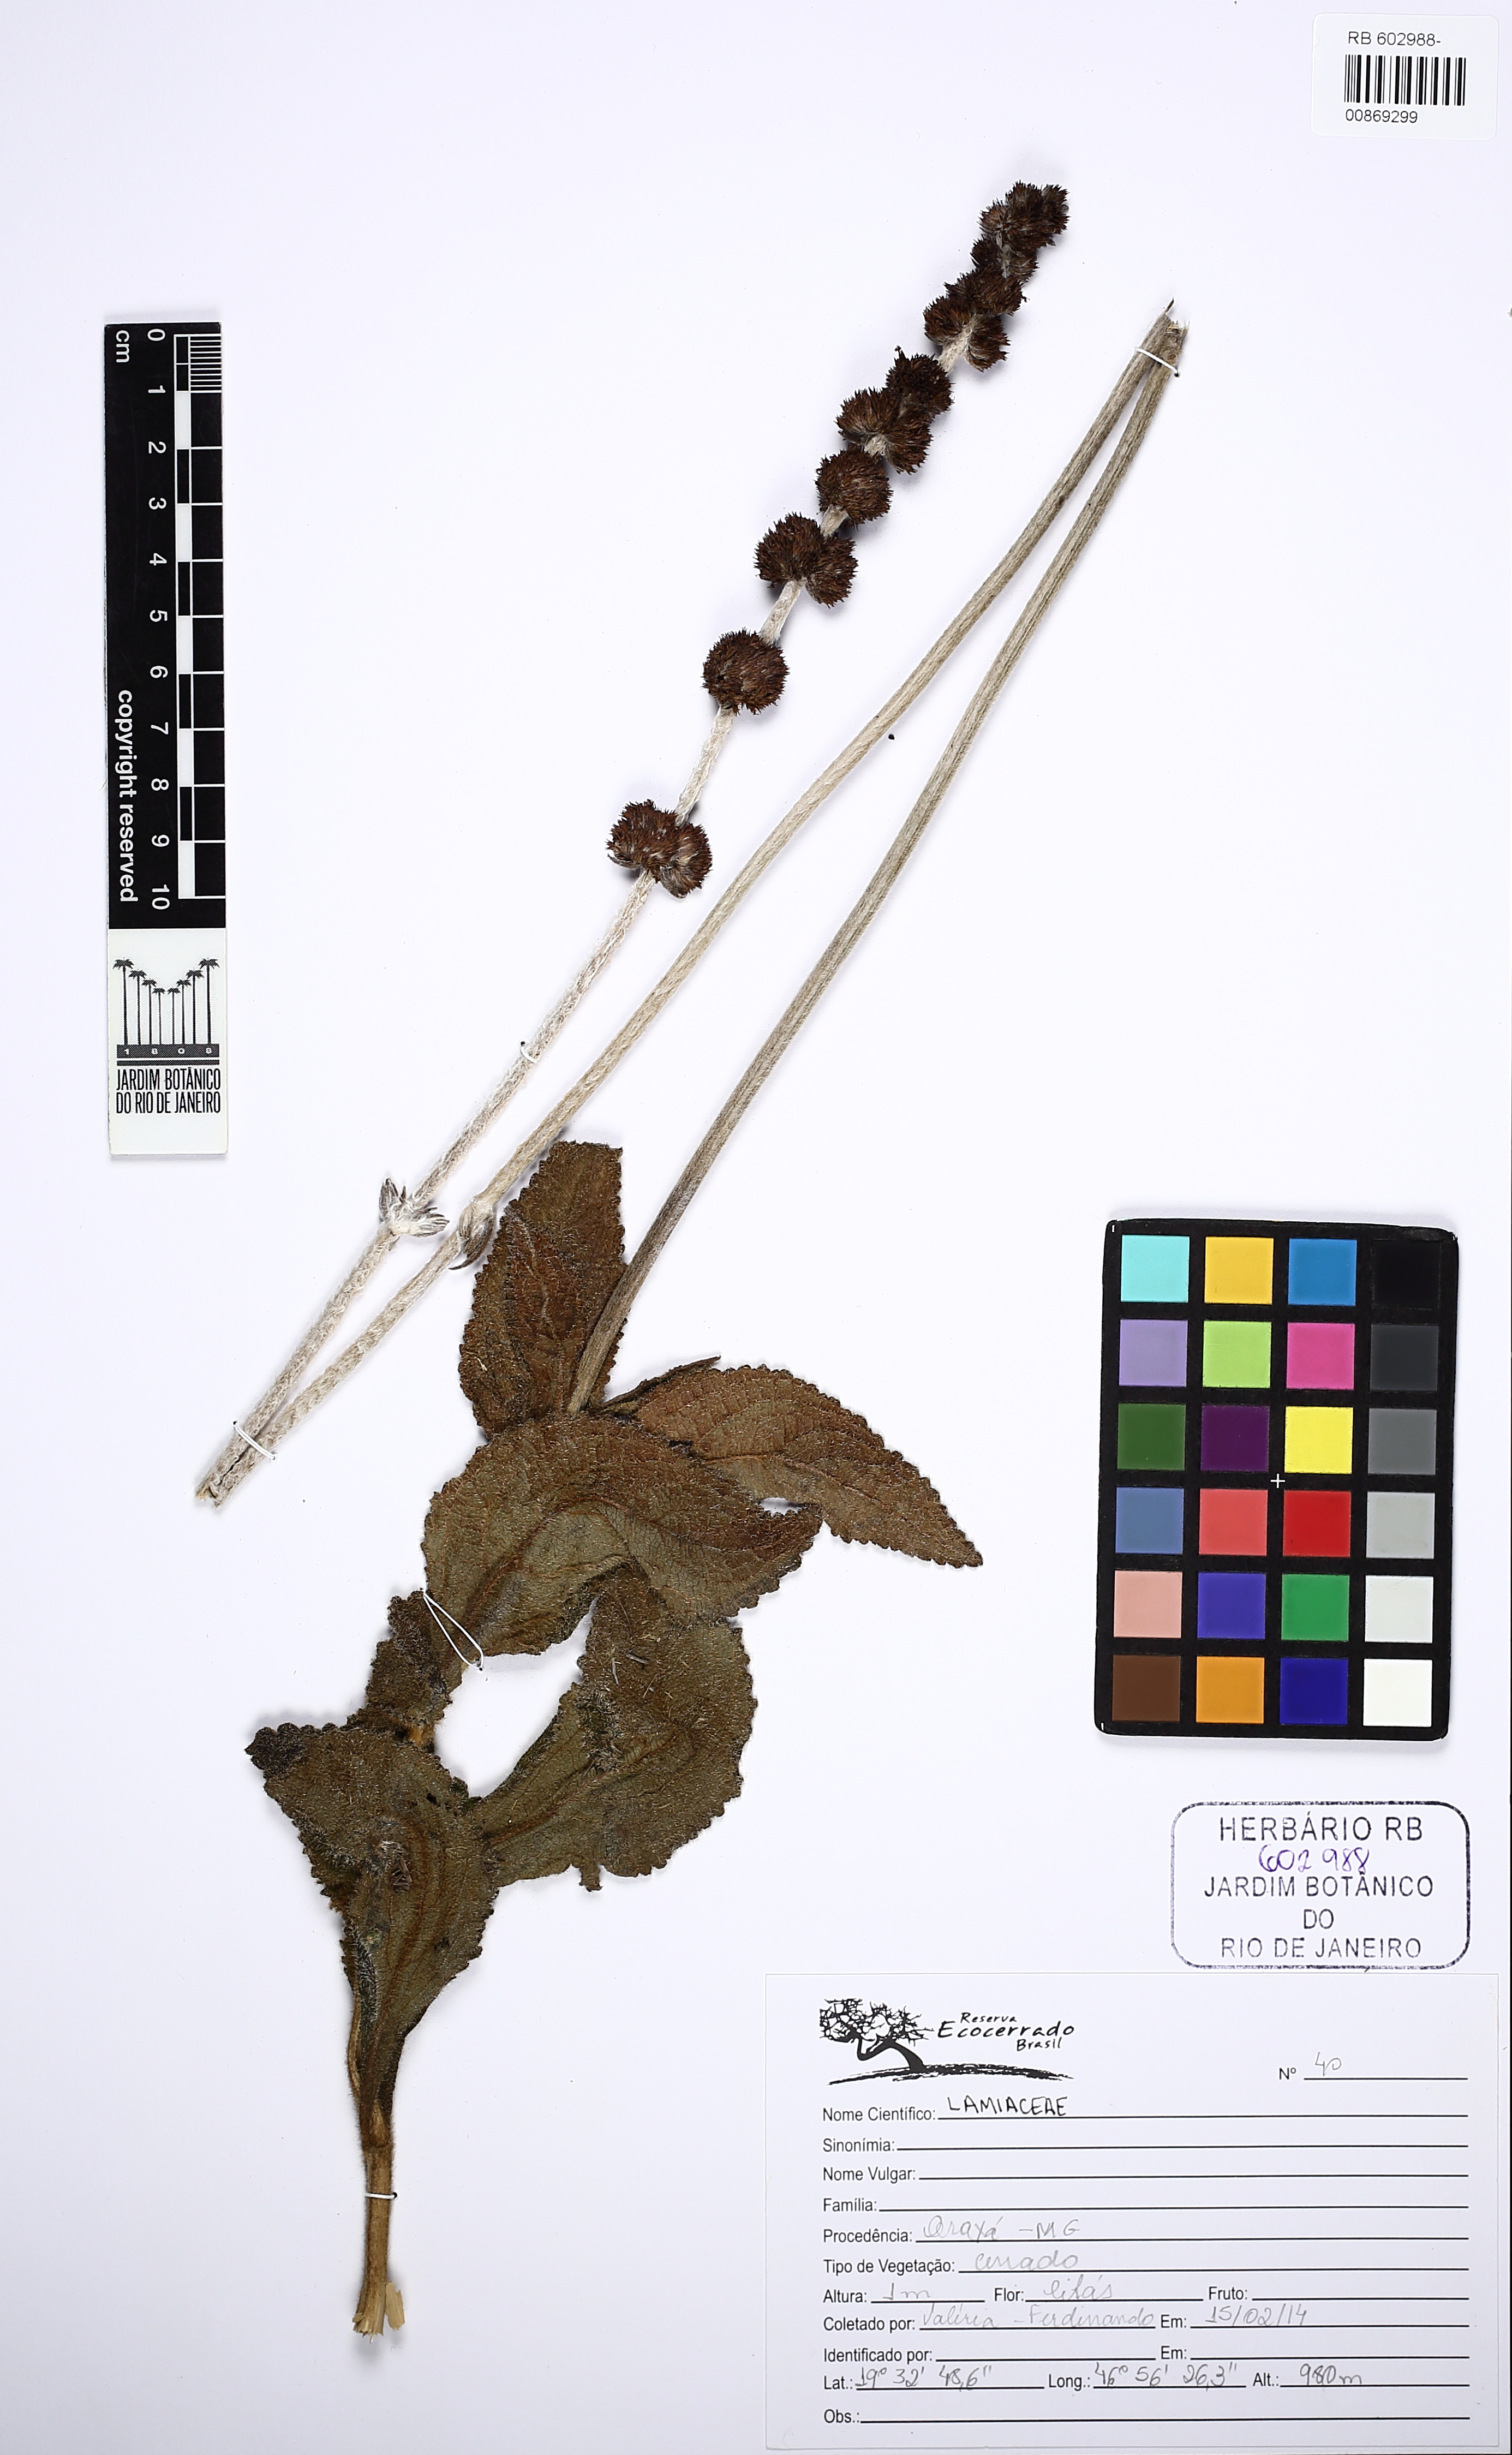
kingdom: Plantae
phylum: Tracheophyta
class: Magnoliopsida
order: Lamiales
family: Lamiaceae
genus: Gymneia
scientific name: Gymneia
